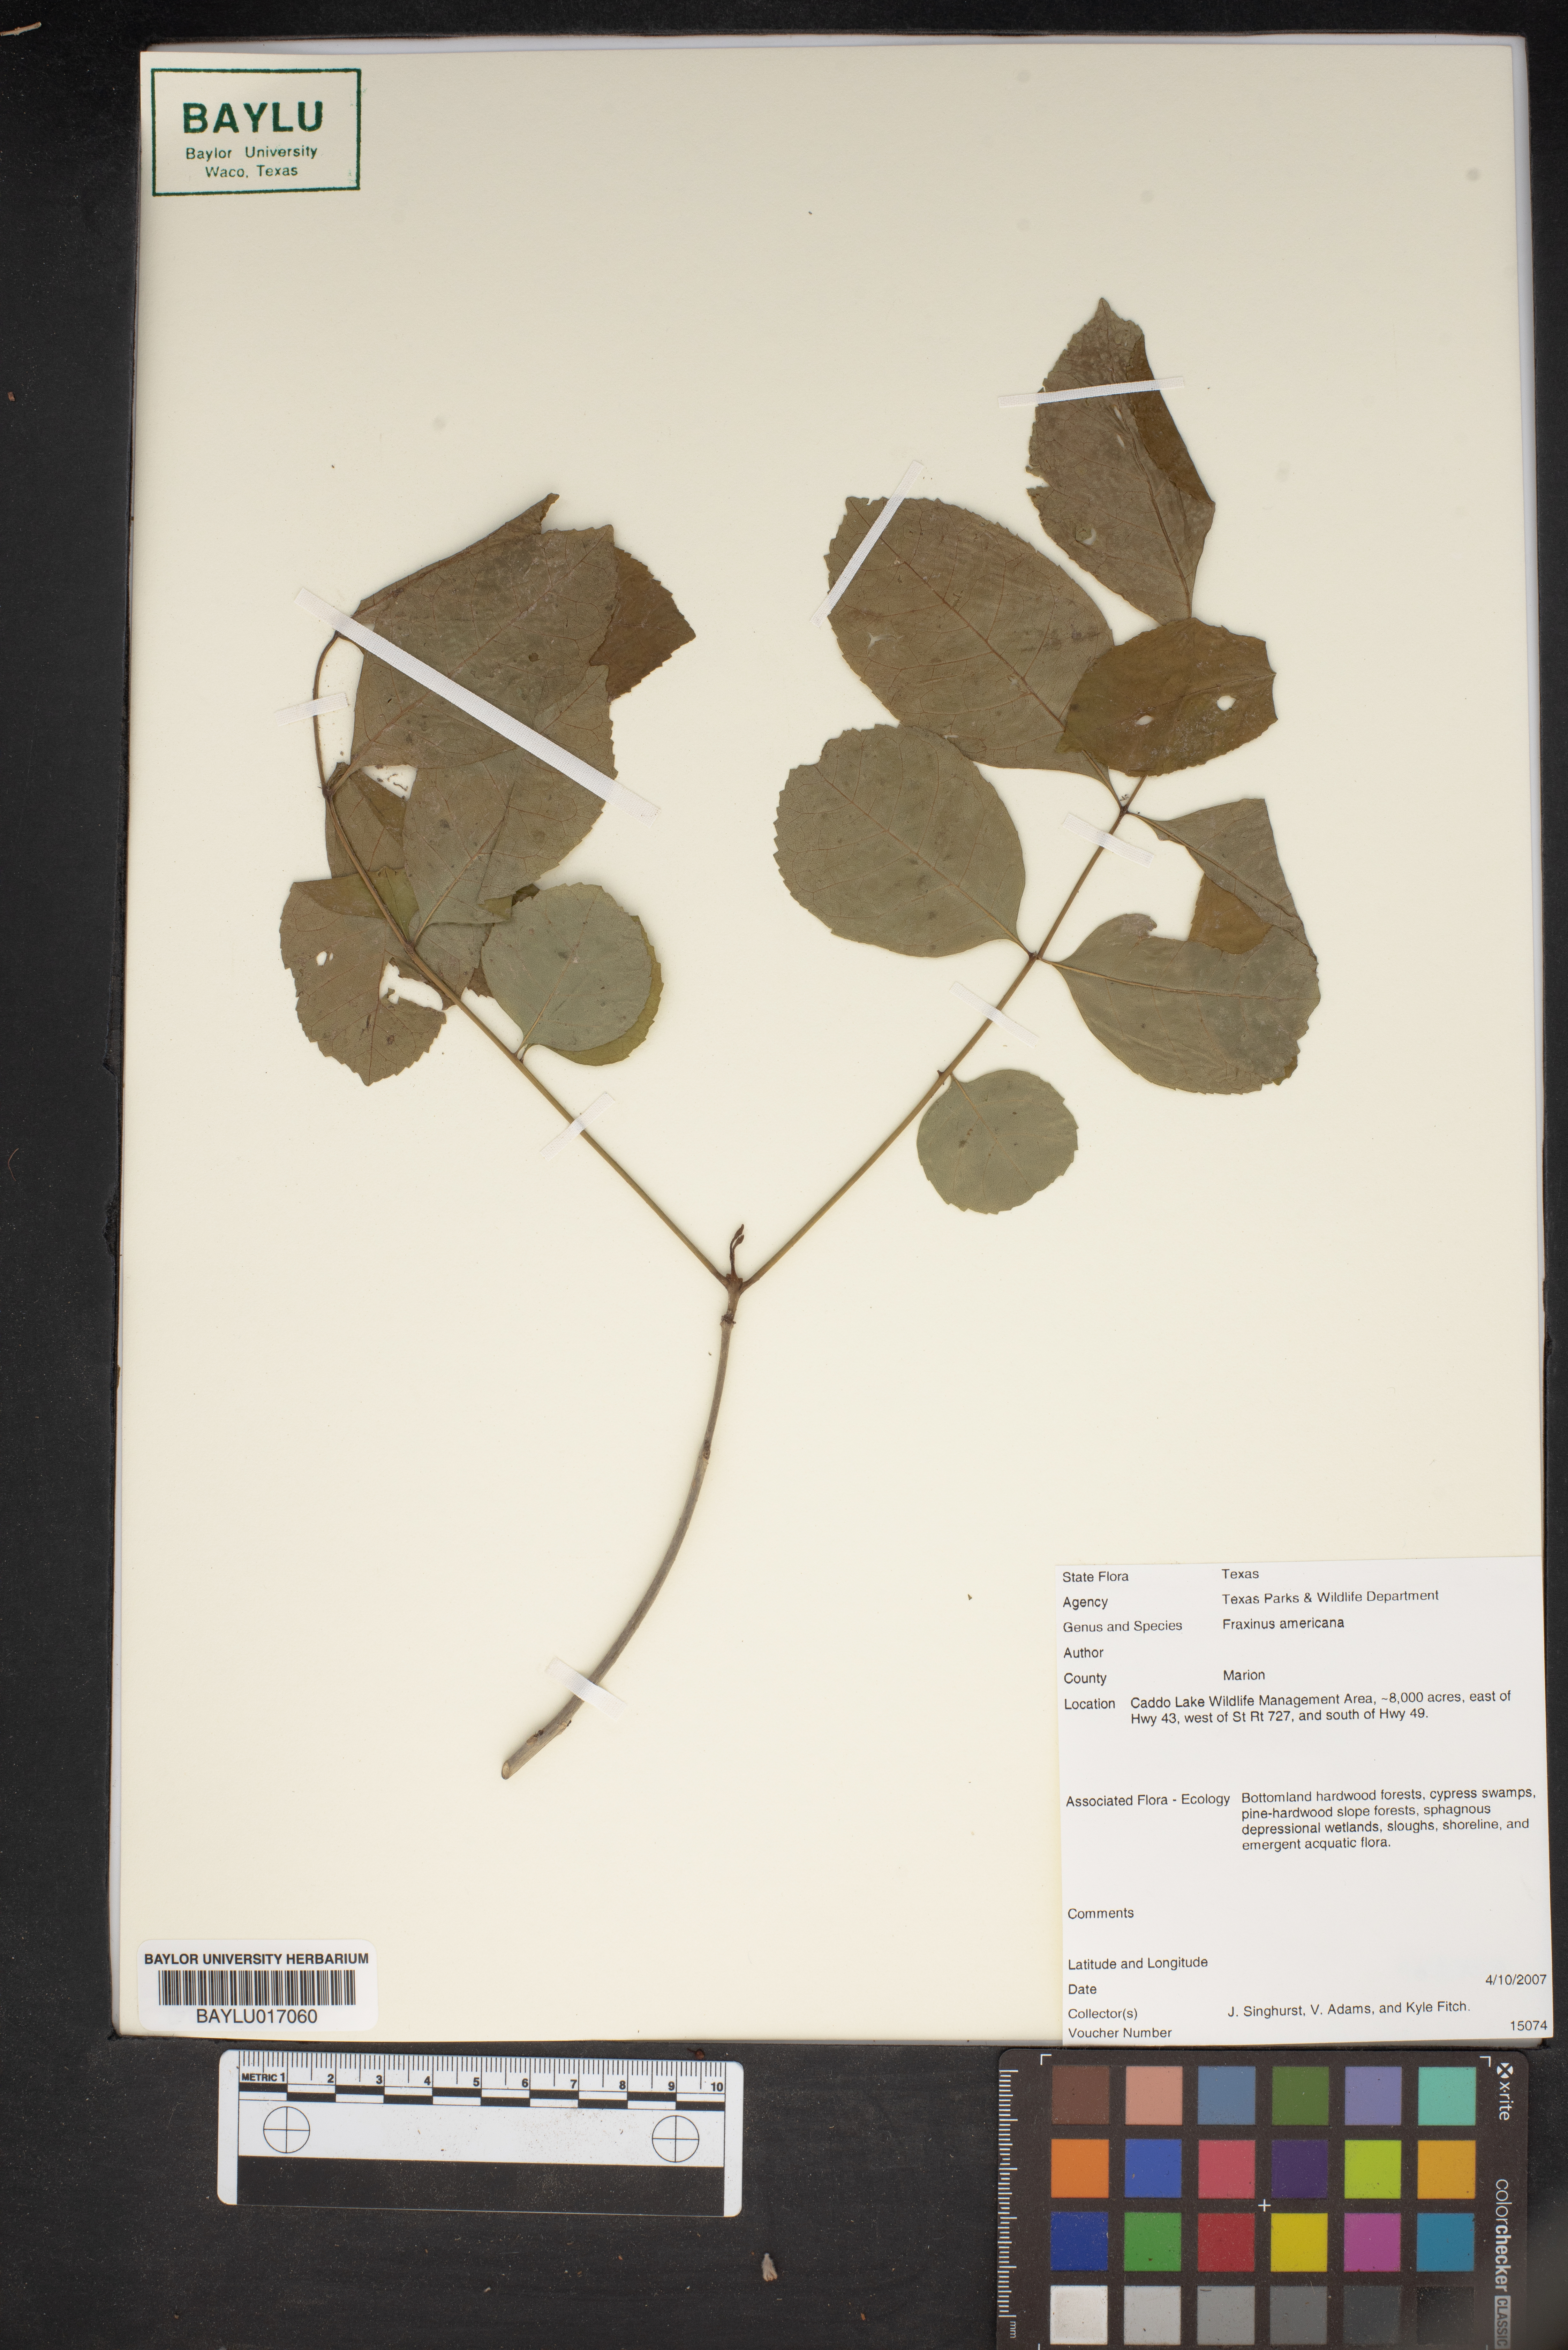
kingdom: Plantae
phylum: Tracheophyta
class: Magnoliopsida
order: Lamiales
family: Oleaceae
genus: Fraxinus
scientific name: Fraxinus americana
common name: White ash
